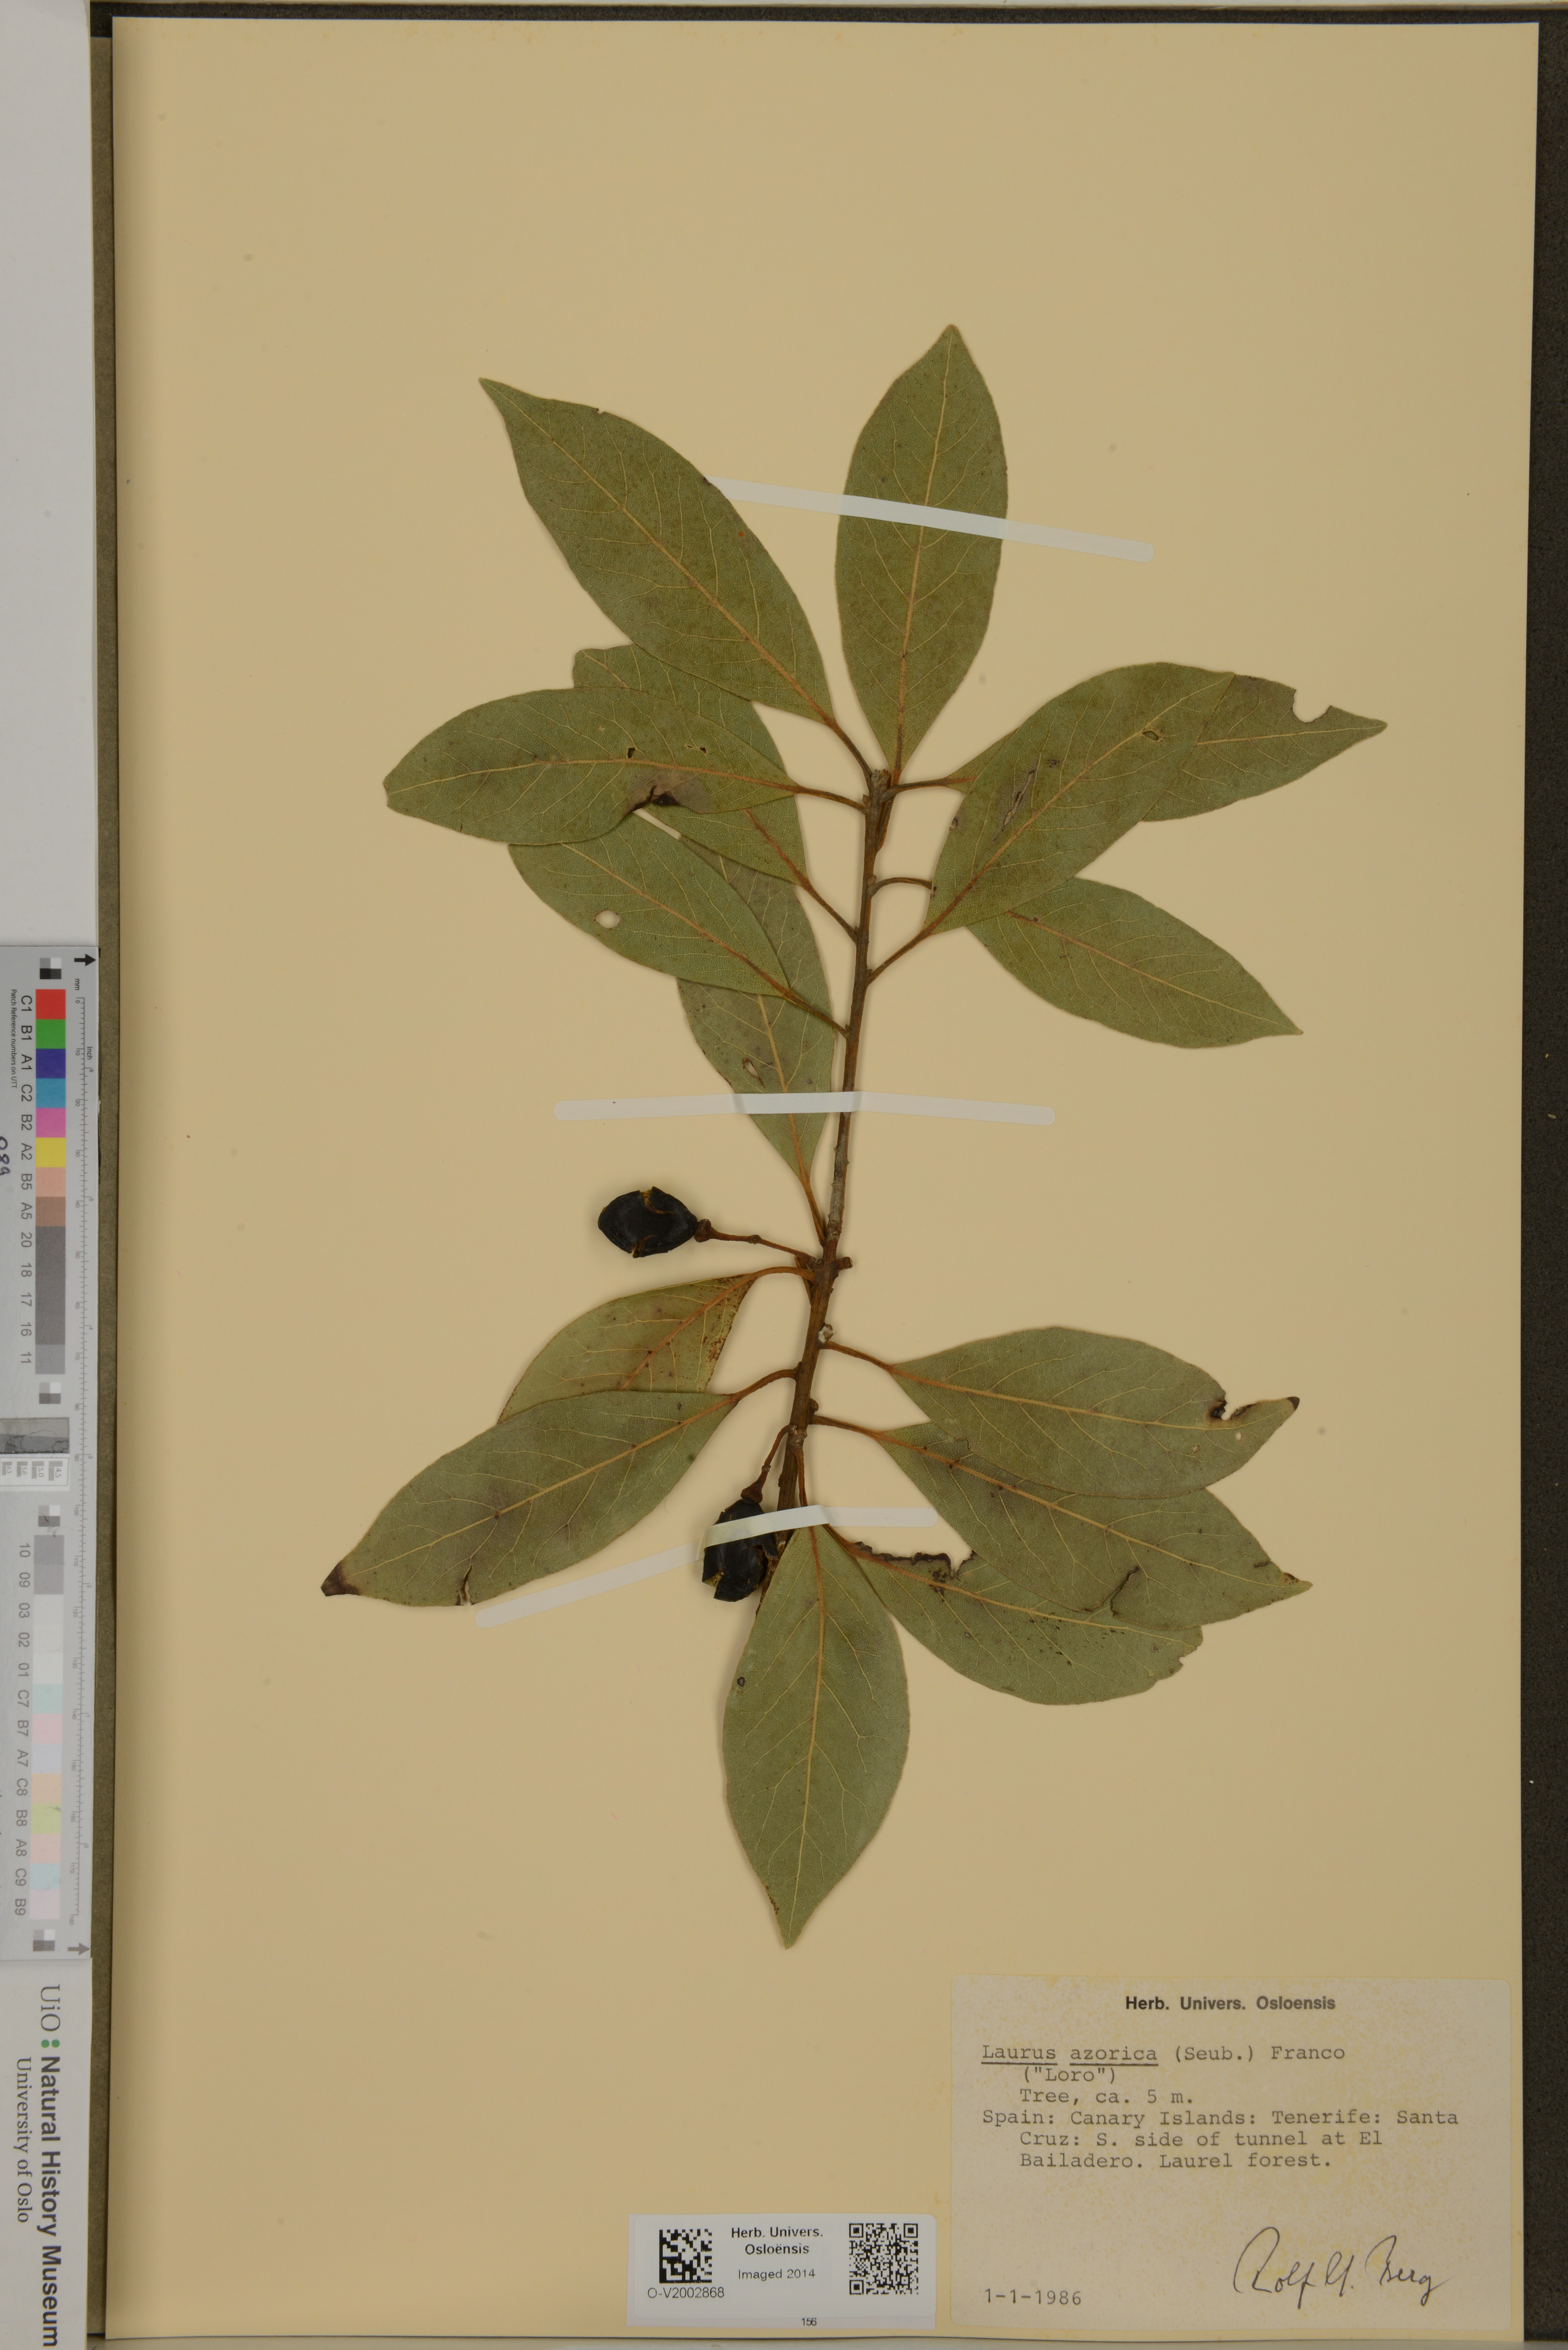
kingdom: Plantae
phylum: Tracheophyta
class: Magnoliopsida
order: Laurales
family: Lauraceae
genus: Laurus
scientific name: Laurus azorica
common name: Macaronesian laurel
